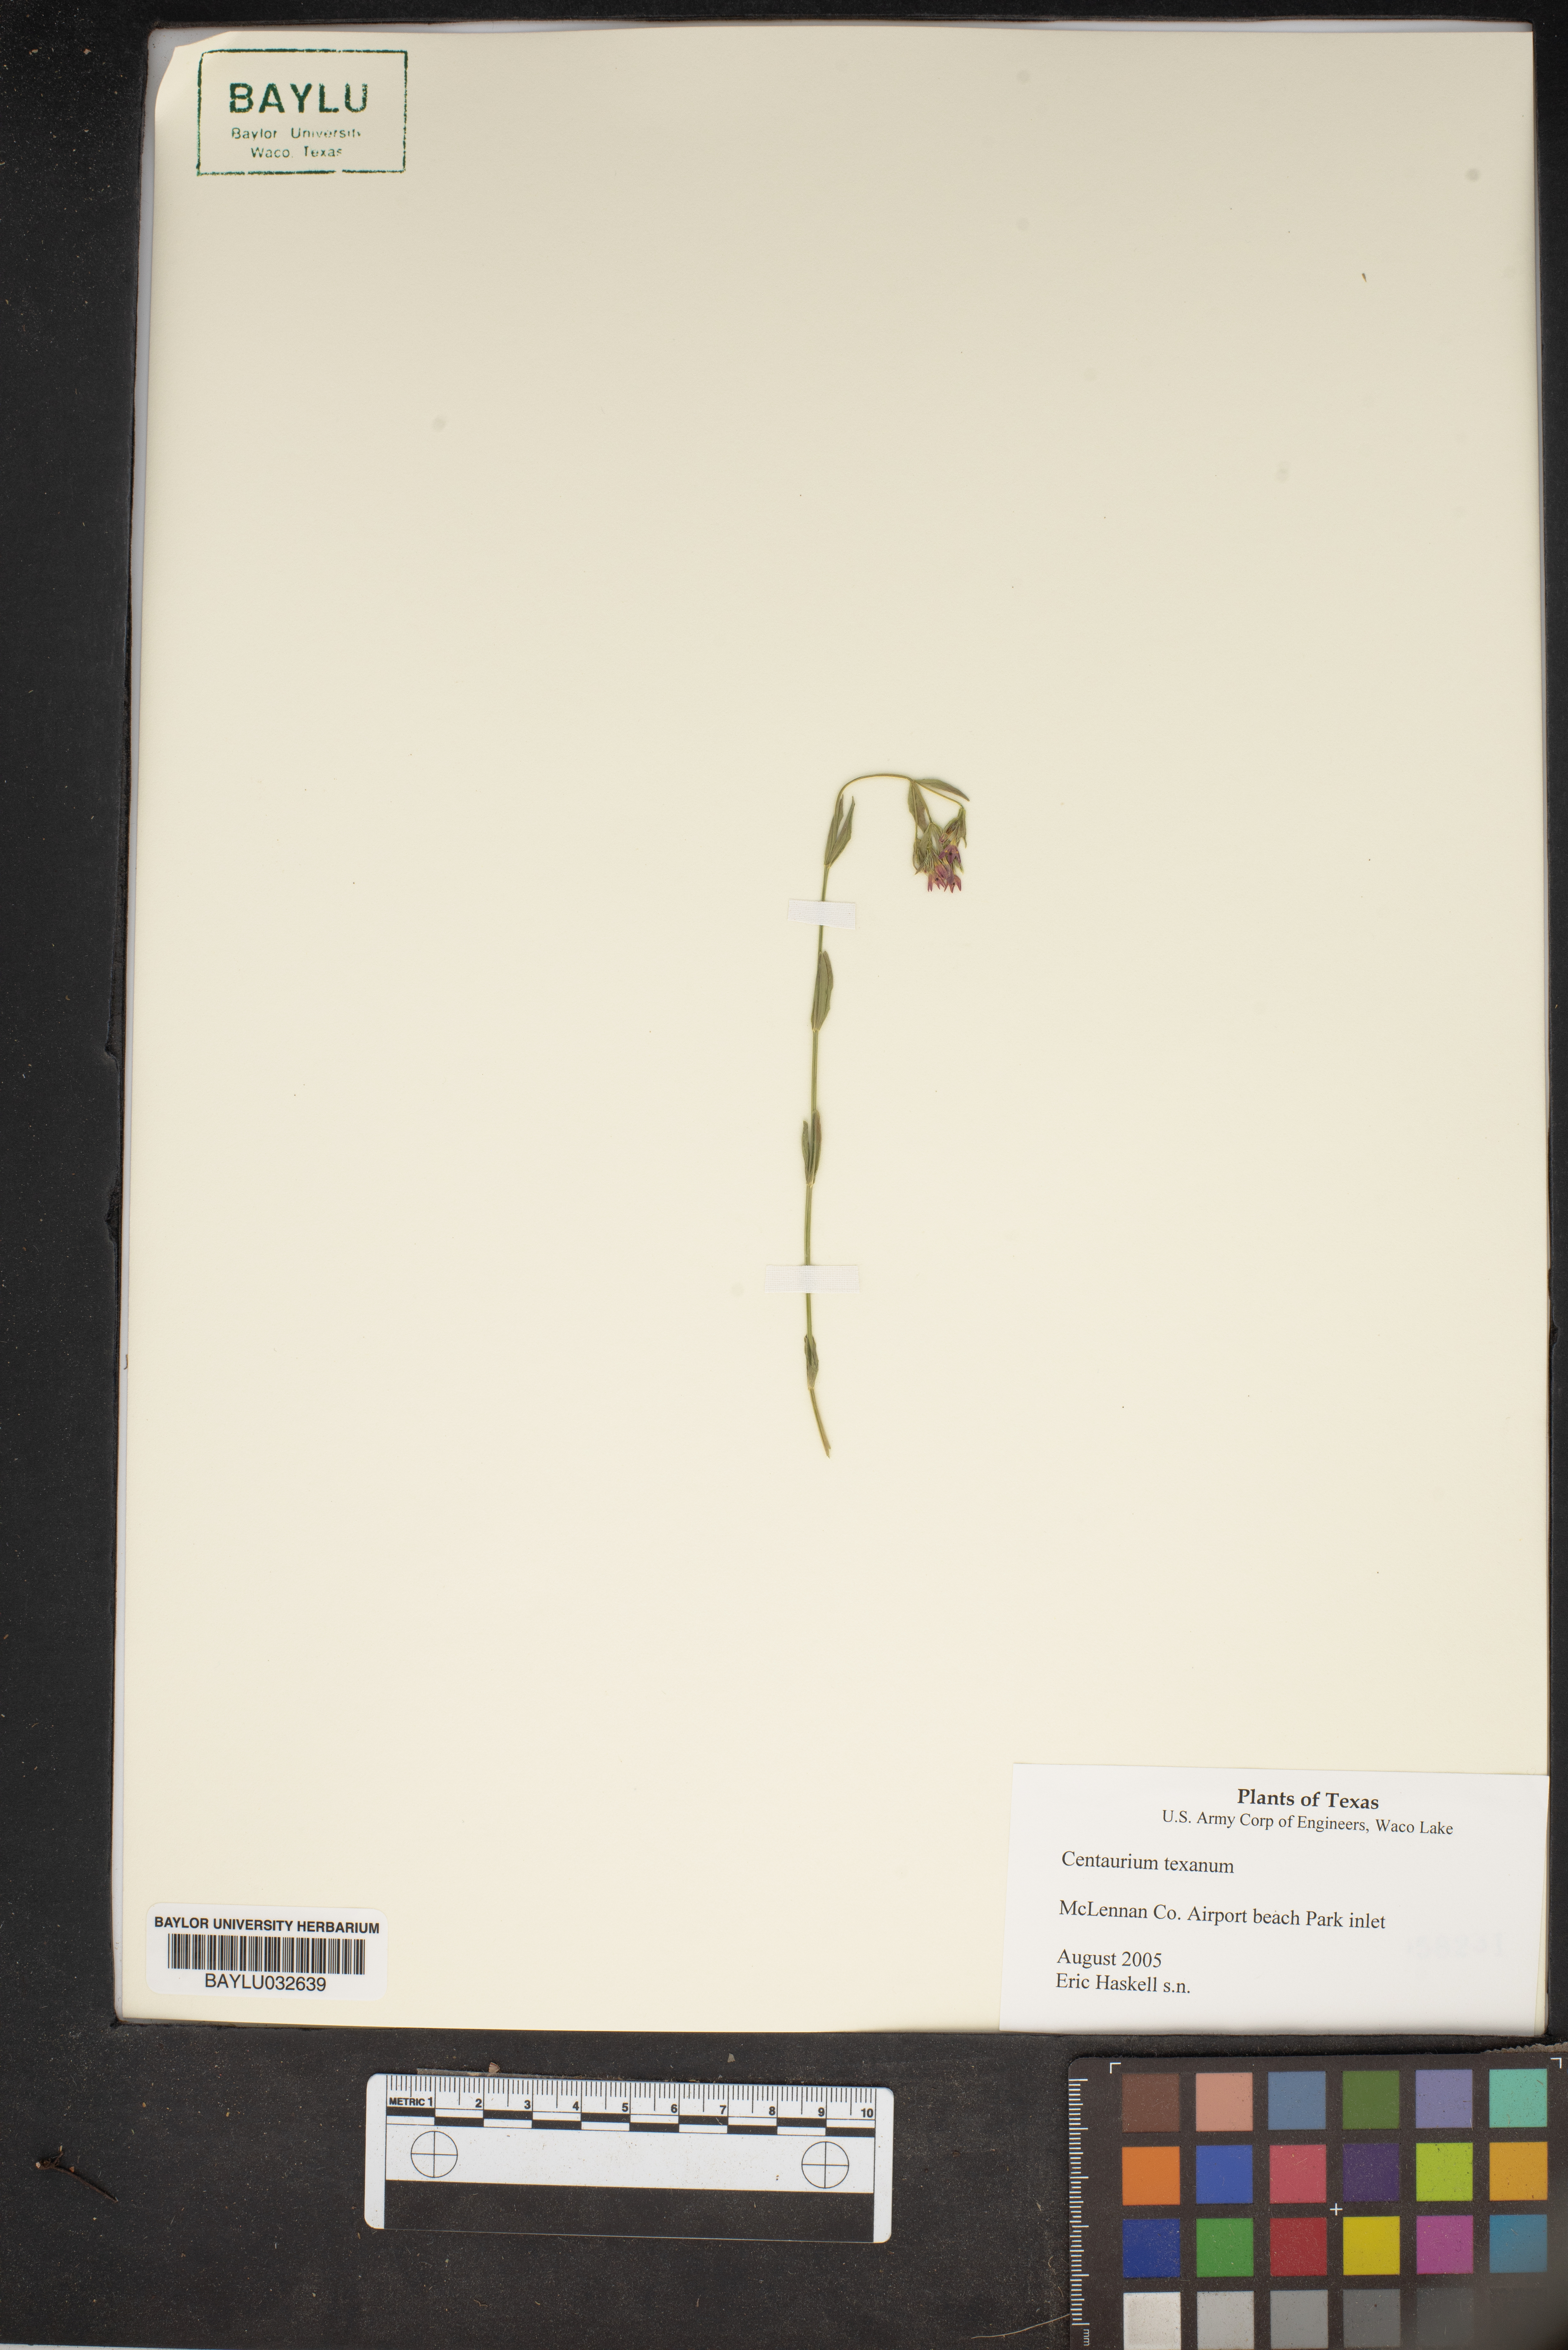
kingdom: Plantae
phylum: Tracheophyta
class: Magnoliopsida
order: Gentianales
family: Gentianaceae
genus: Zeltnera
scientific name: Zeltnera texensis
